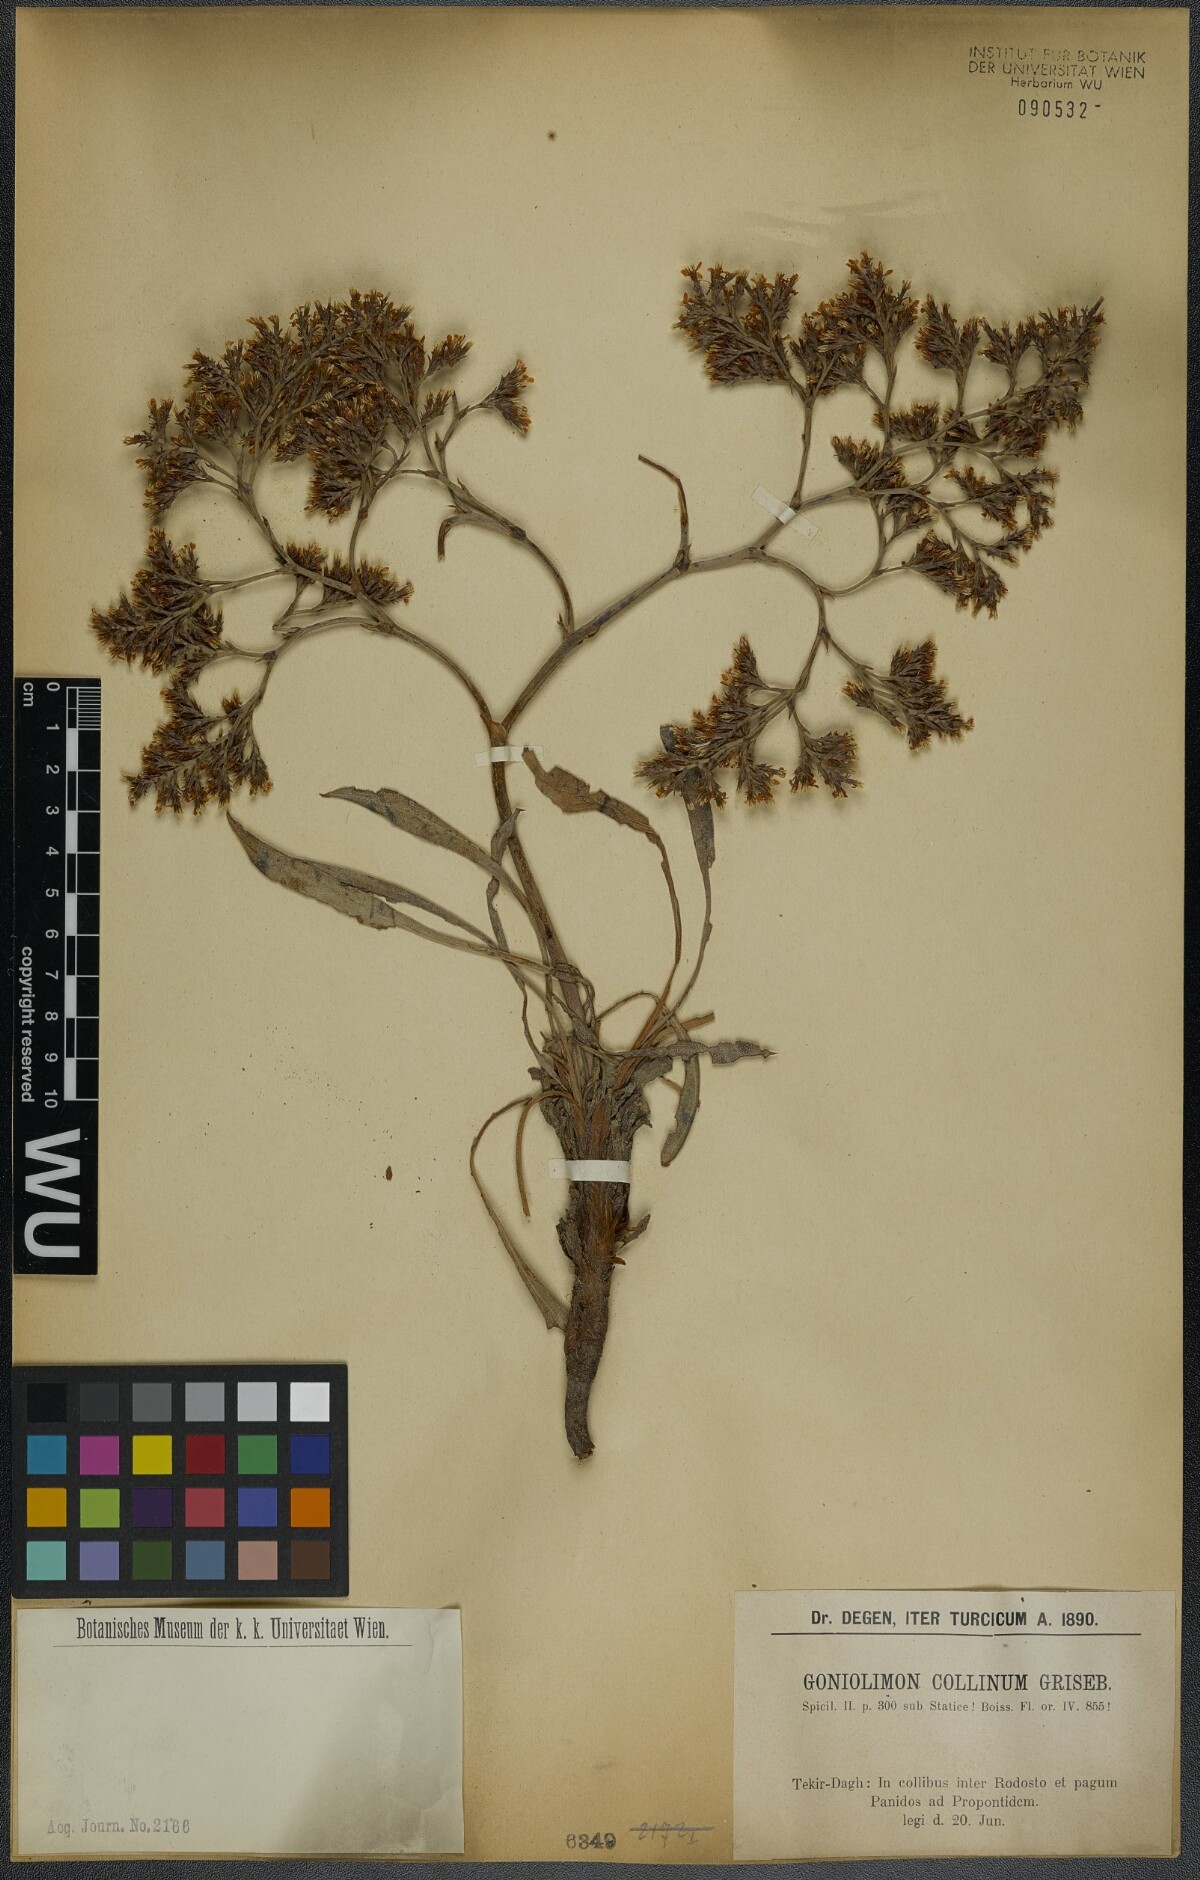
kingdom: Plantae
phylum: Tracheophyta
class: Magnoliopsida
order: Caryophyllales
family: Plumbaginaceae
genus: Goniolimon
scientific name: Goniolimon incanum
